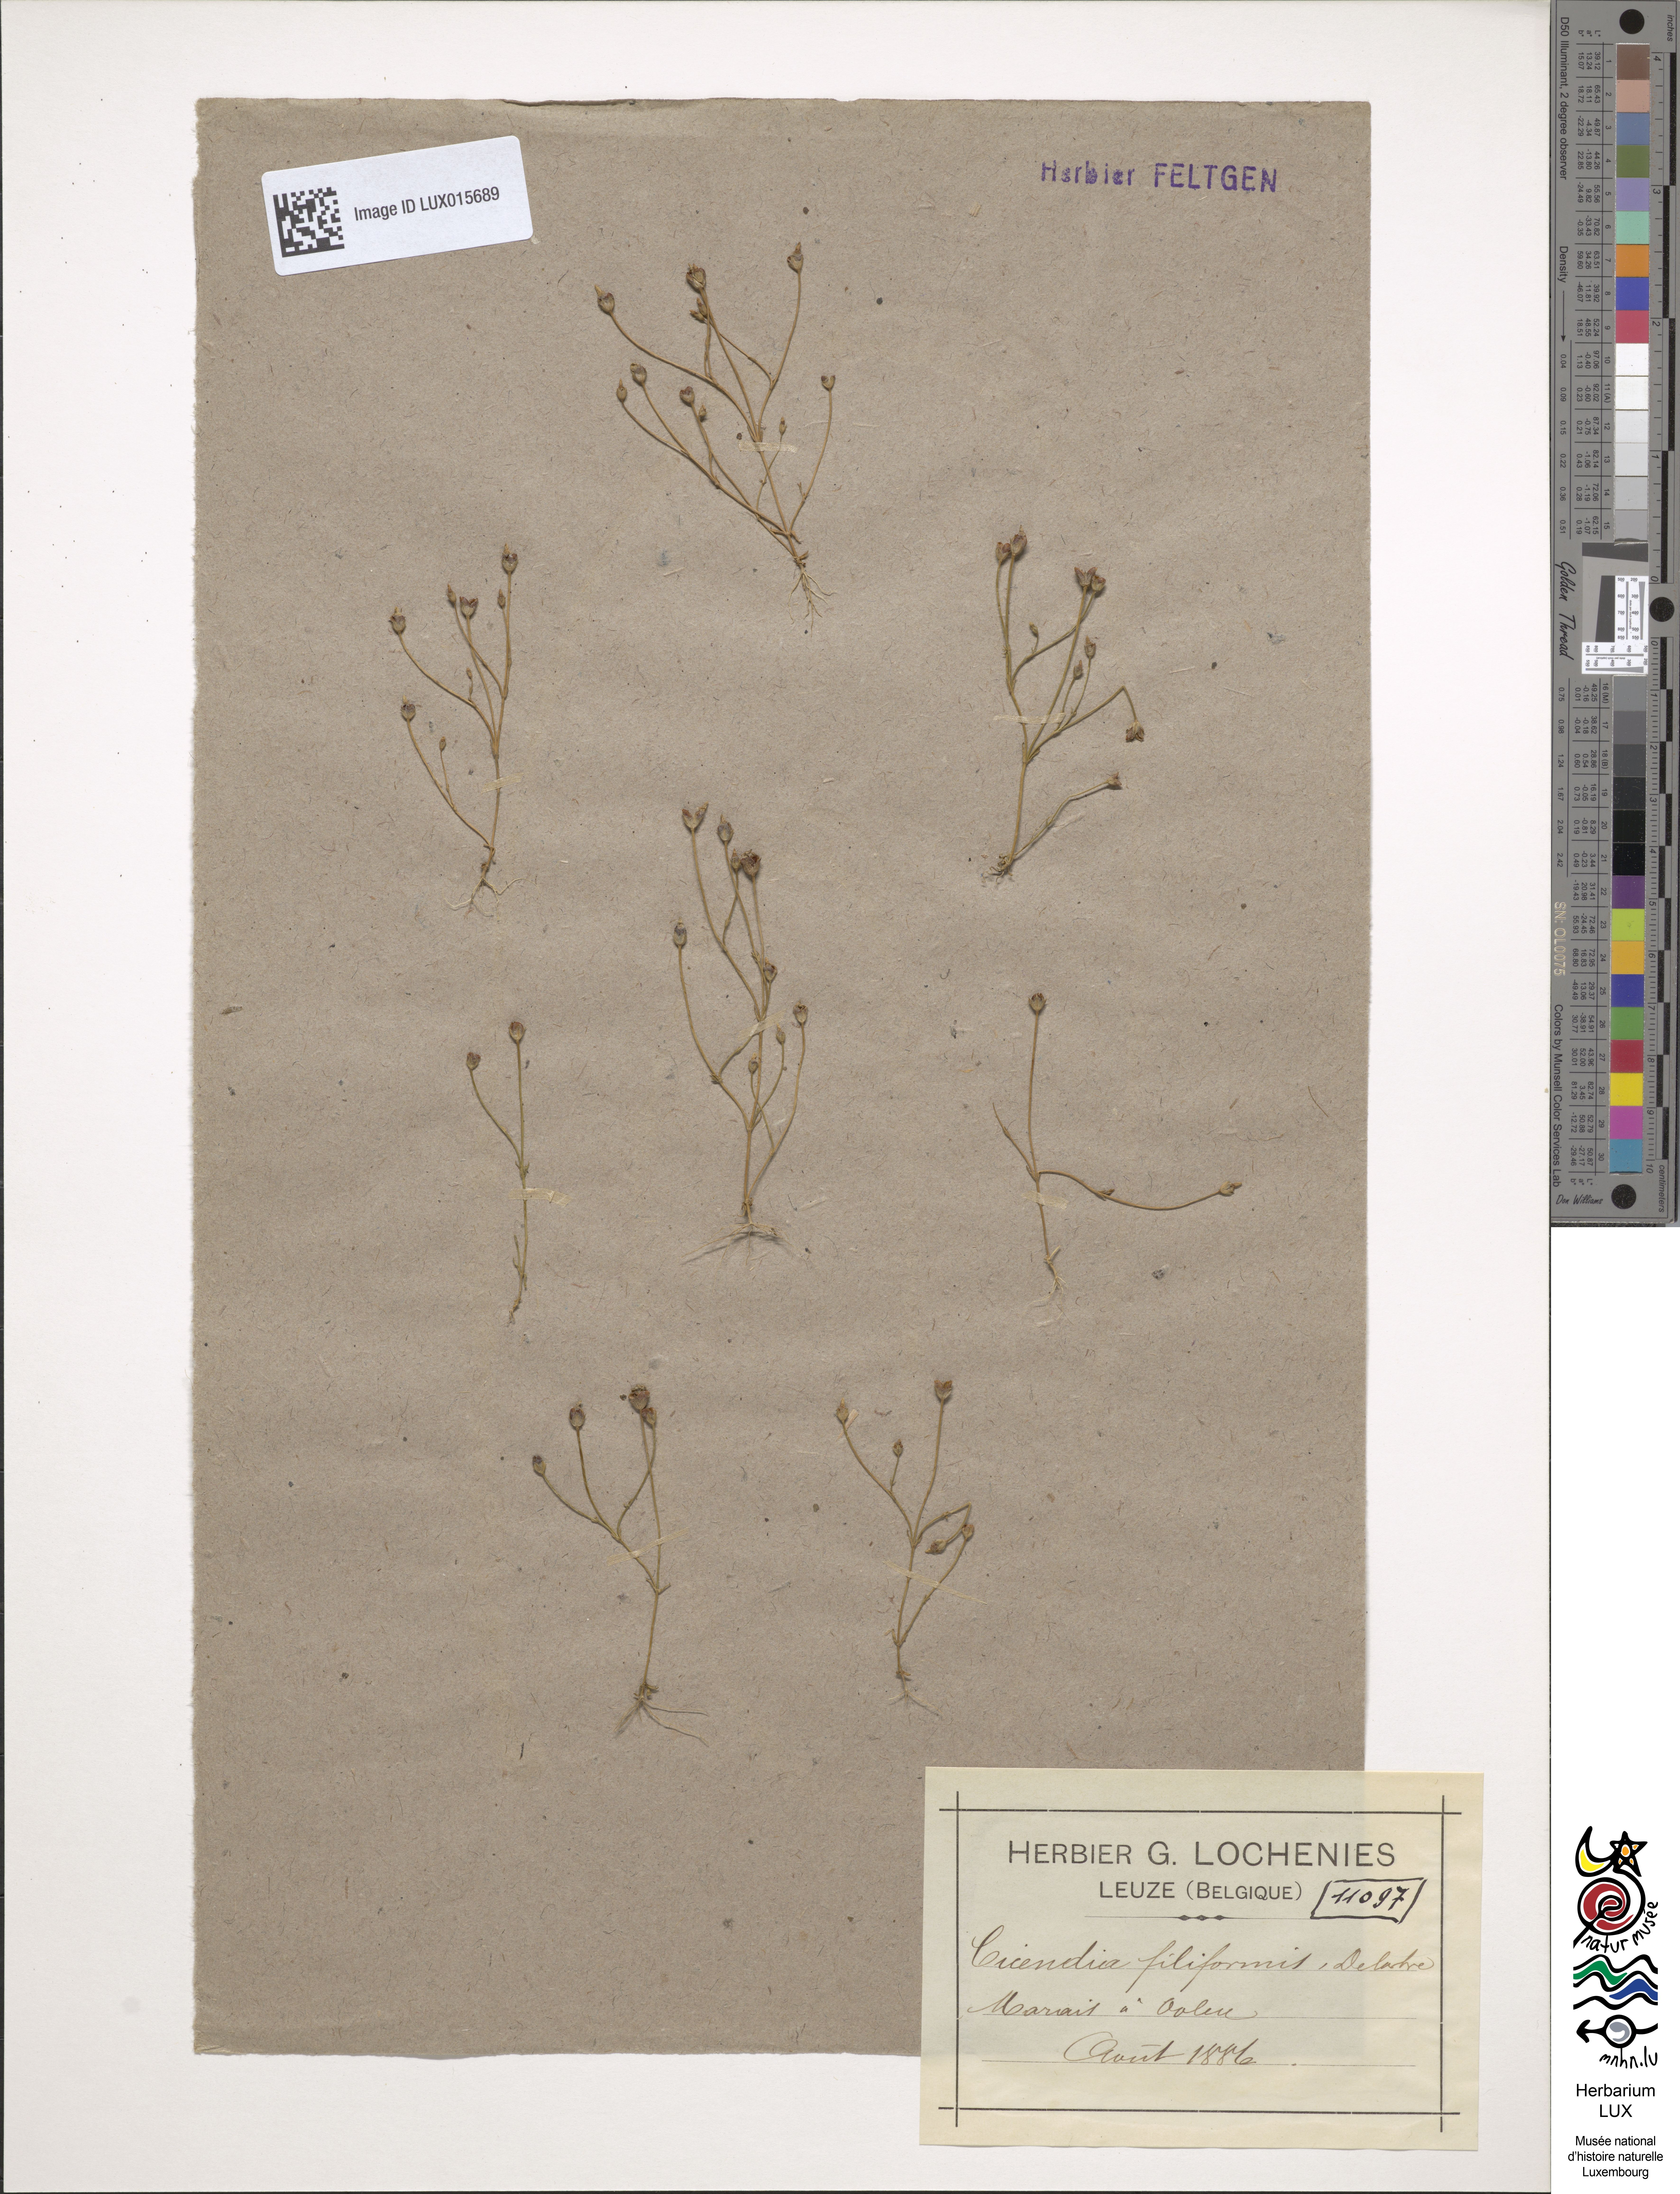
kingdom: Plantae
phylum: Tracheophyta
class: Magnoliopsida
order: Gentianales
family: Gentianaceae
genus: Cicendia
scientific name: Cicendia filiformis
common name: Yellow centaury
